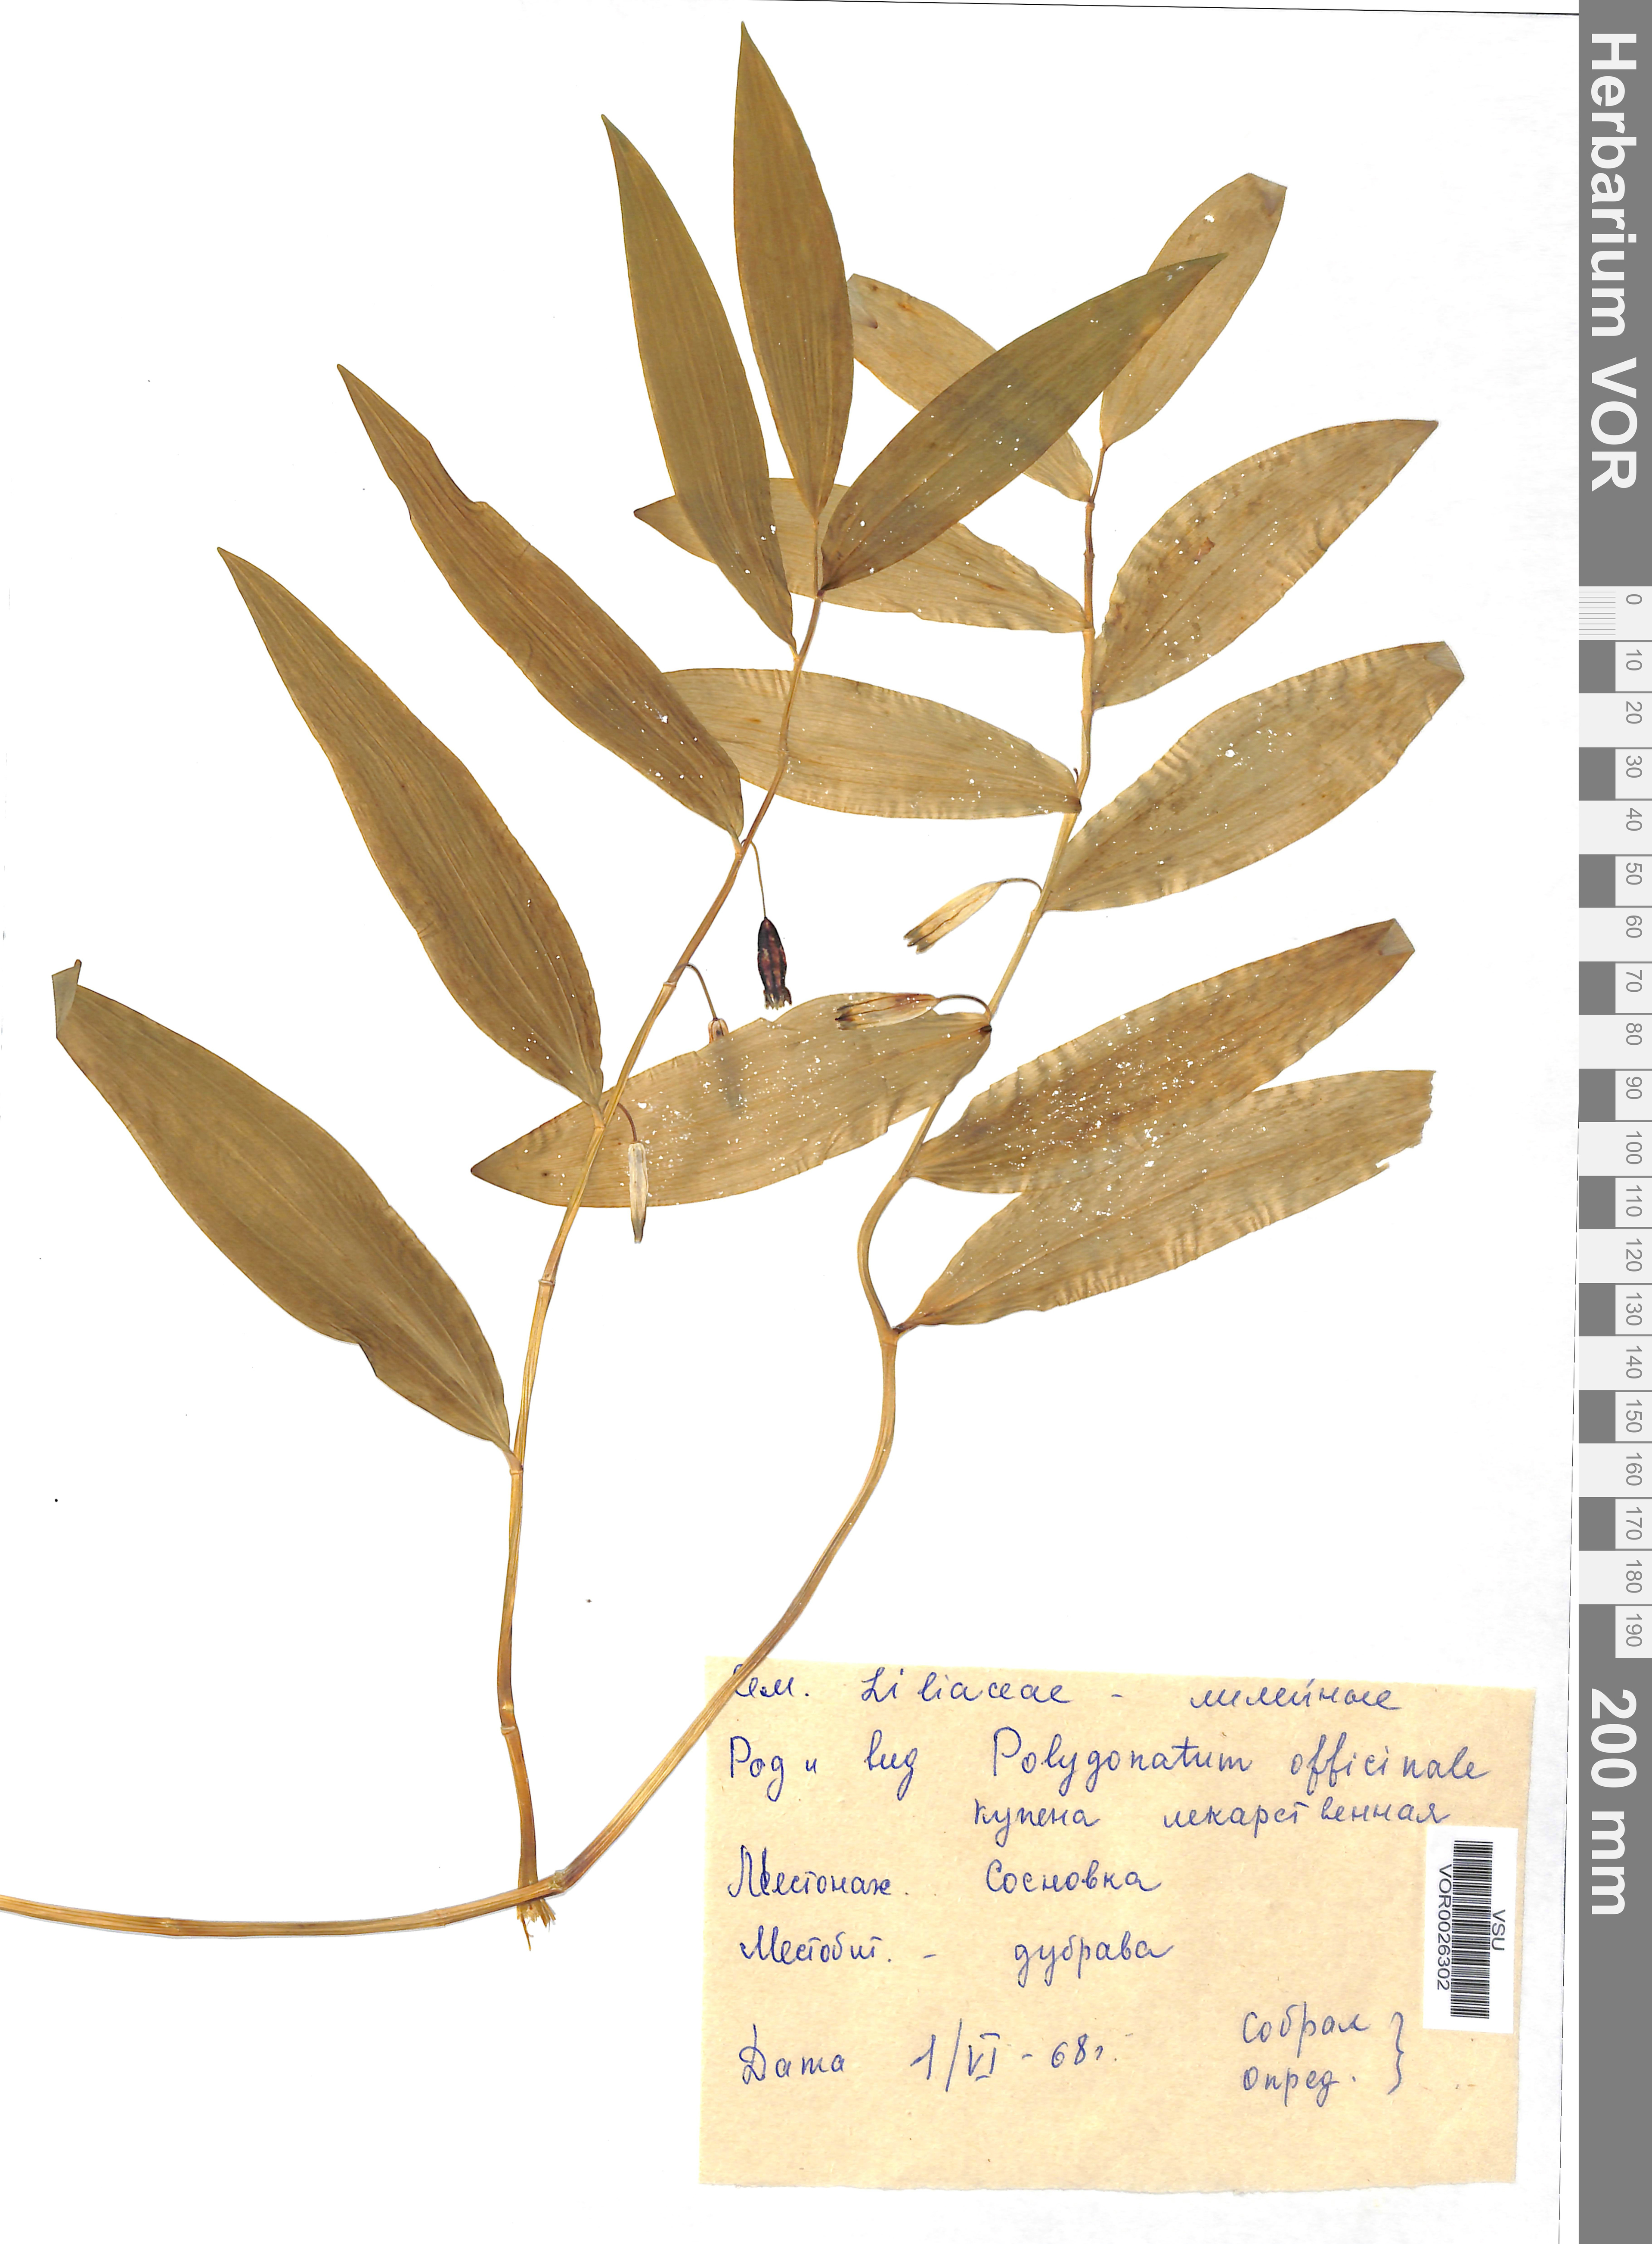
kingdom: Plantae
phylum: Tracheophyta
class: Liliopsida
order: Asparagales
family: Asparagaceae
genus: Polygonatum
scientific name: Polygonatum odoratum
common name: Angular solomon's-seal
